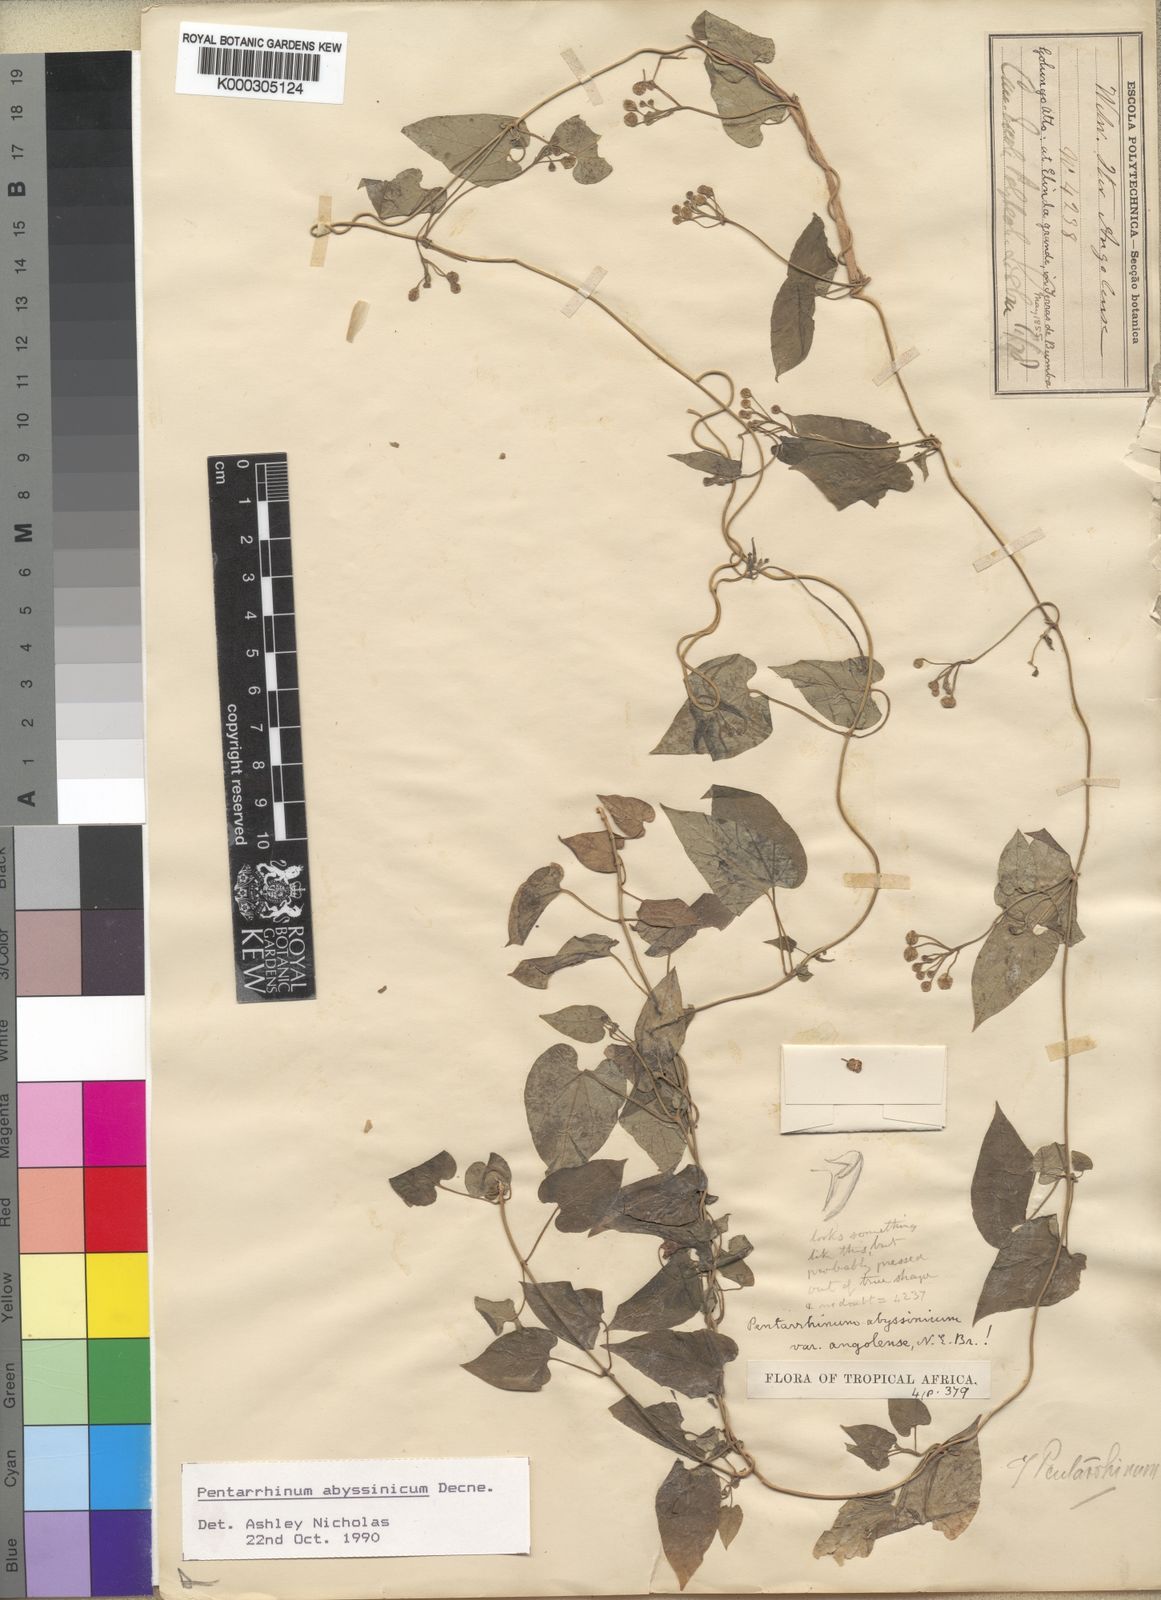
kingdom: Plantae
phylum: Tracheophyta
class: Magnoliopsida
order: Gentianales
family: Apocynaceae
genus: Cynanchum
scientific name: Cynanchum ethiopicum
